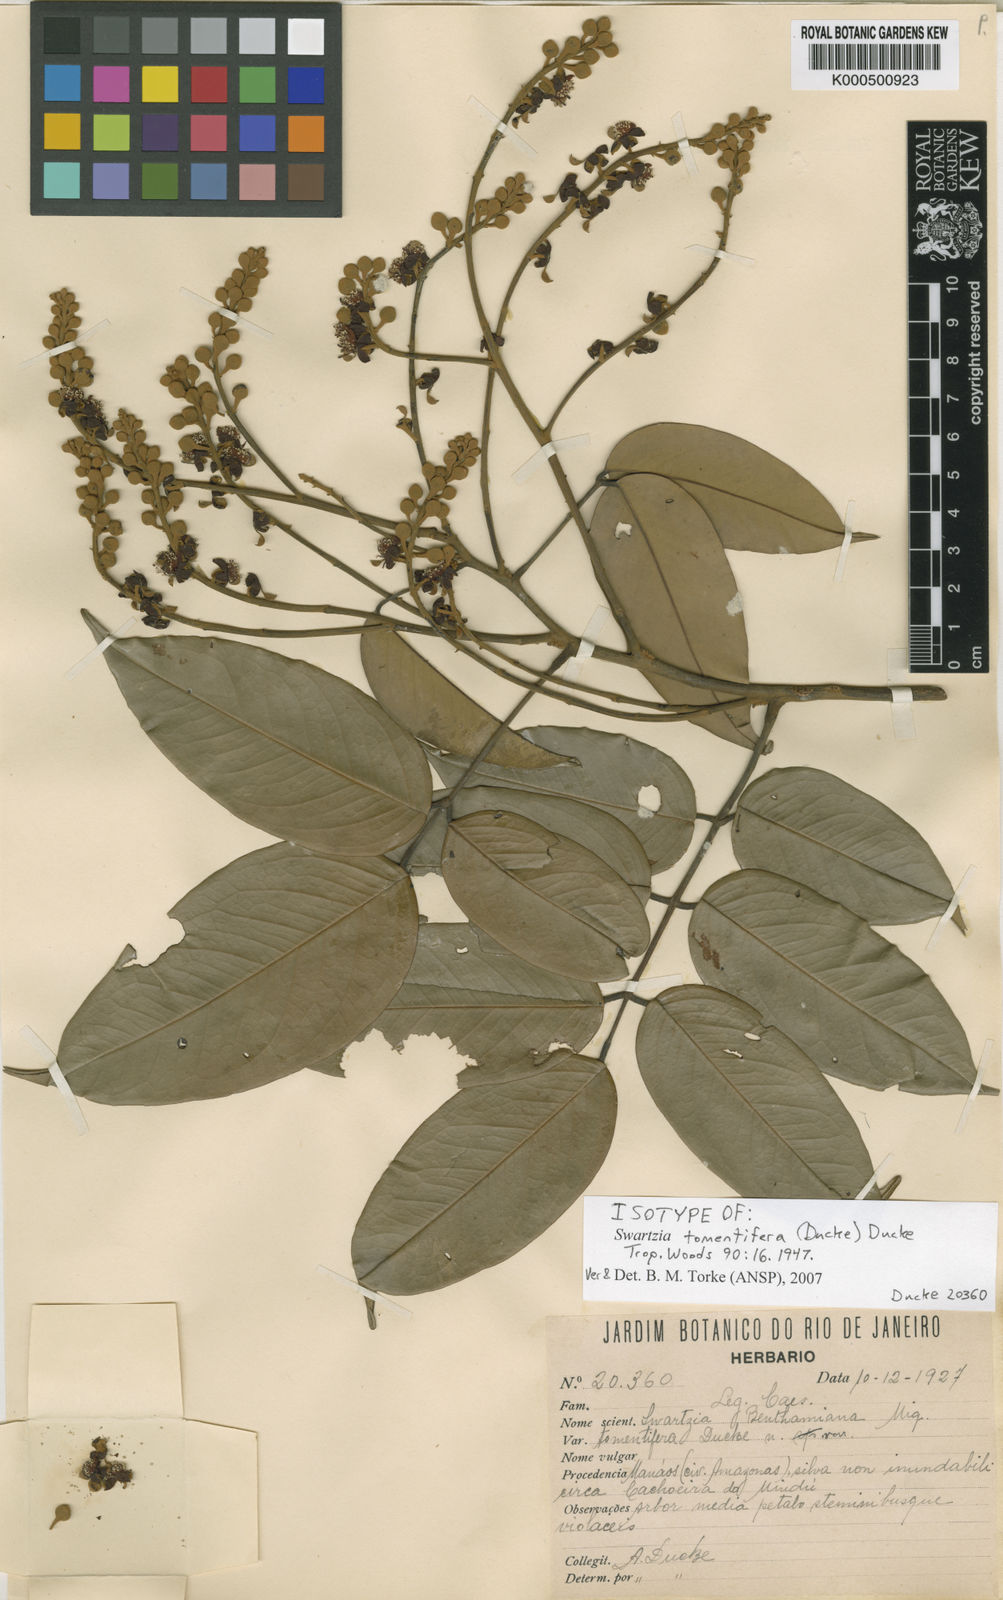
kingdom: Plantae
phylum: Tracheophyta
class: Magnoliopsida
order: Fabales
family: Fabaceae
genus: Swartzia
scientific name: Swartzia tomentifera
